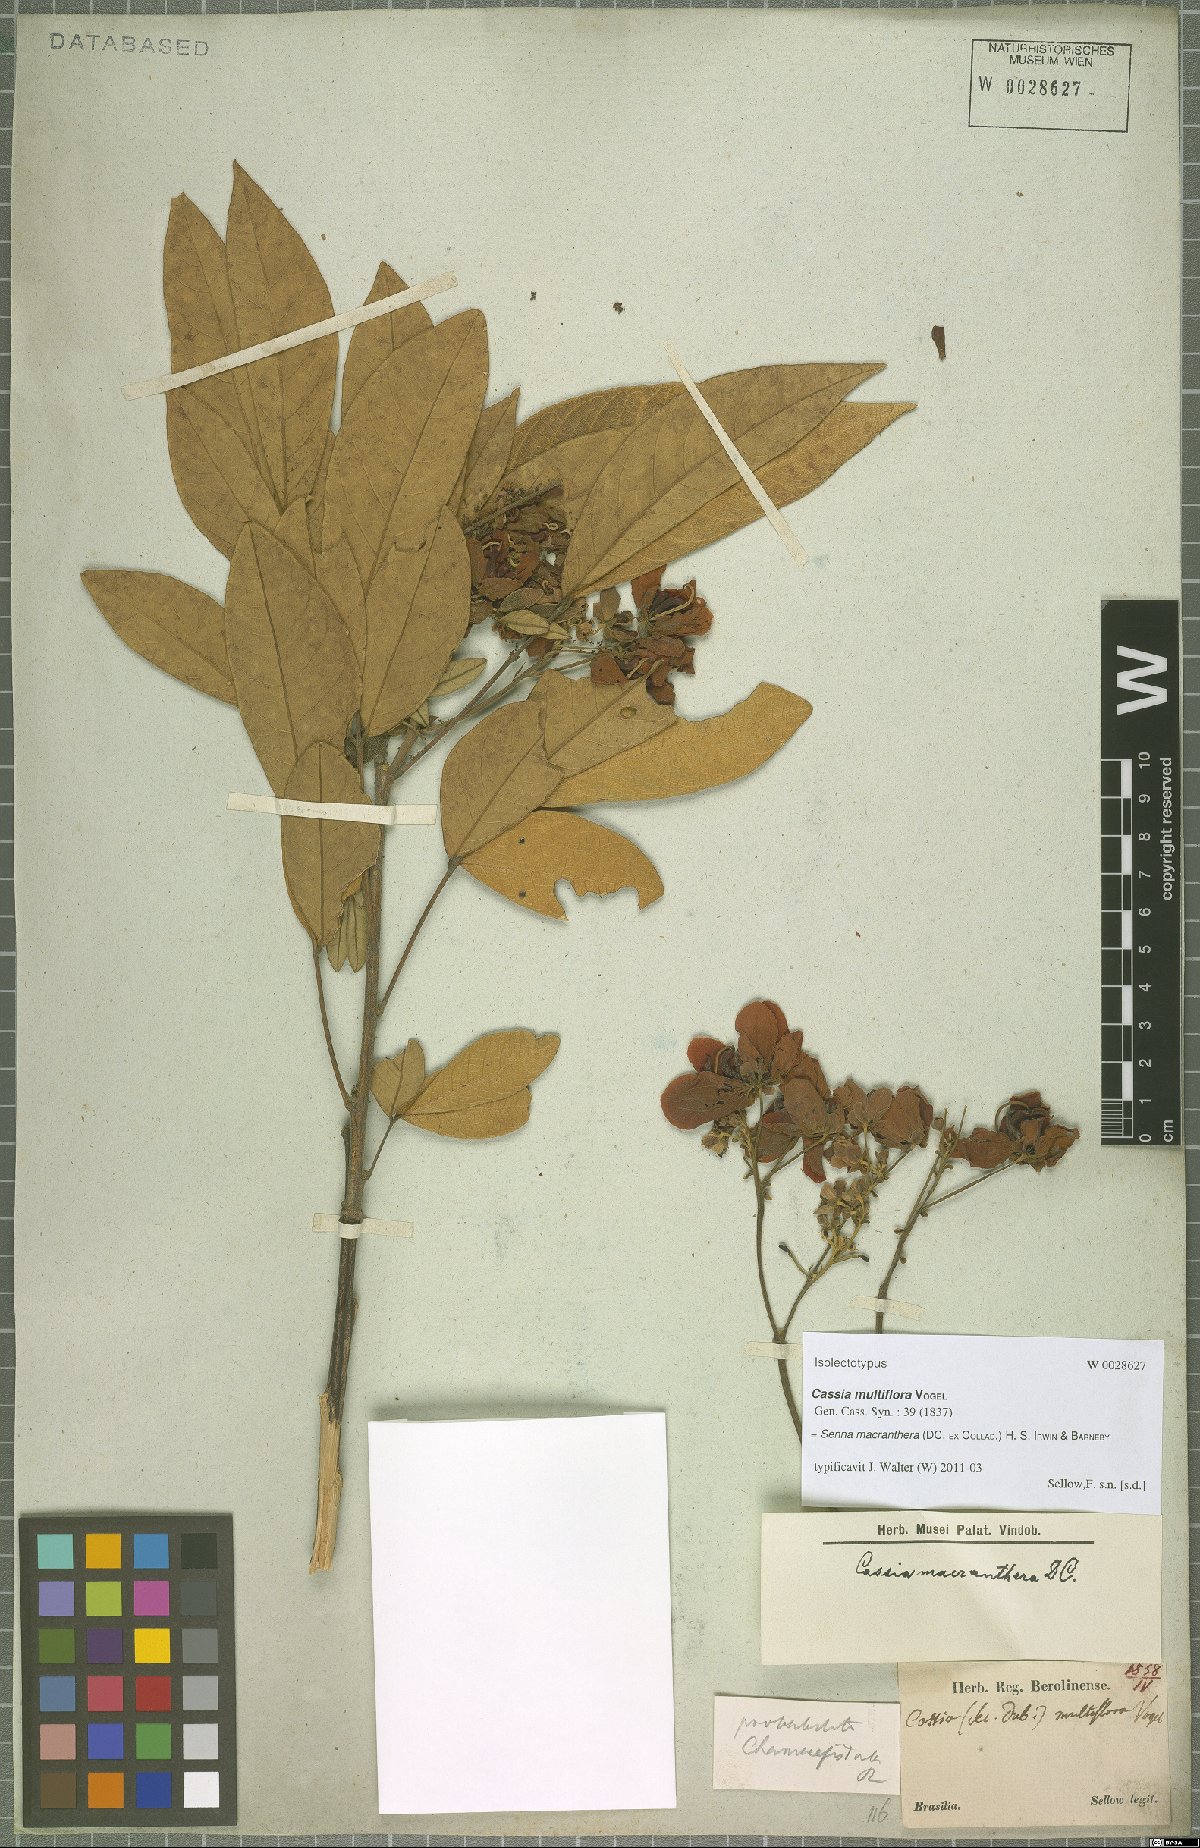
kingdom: Plantae
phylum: Tracheophyta
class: Magnoliopsida
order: Fabales
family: Fabaceae
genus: Senna
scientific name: Senna macranthera
